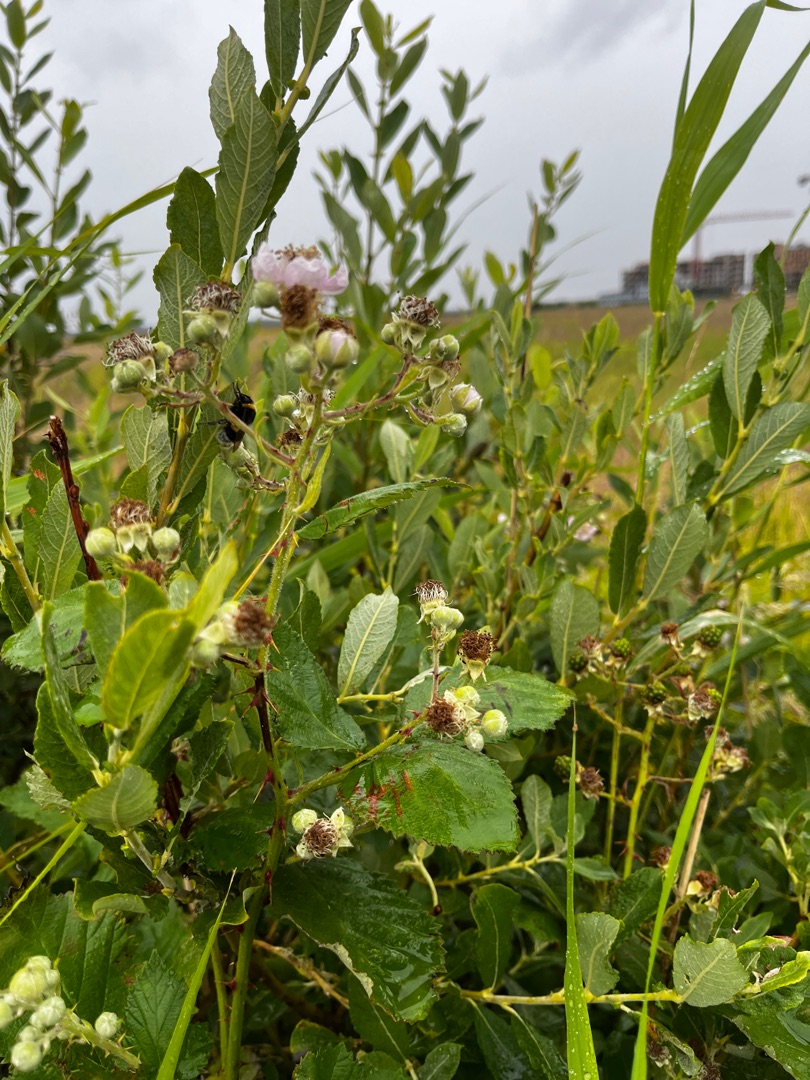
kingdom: Plantae
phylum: Tracheophyta
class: Magnoliopsida
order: Rosales
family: Rosaceae
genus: Rubus
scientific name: Rubus armeniacus
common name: Armensk brombær
